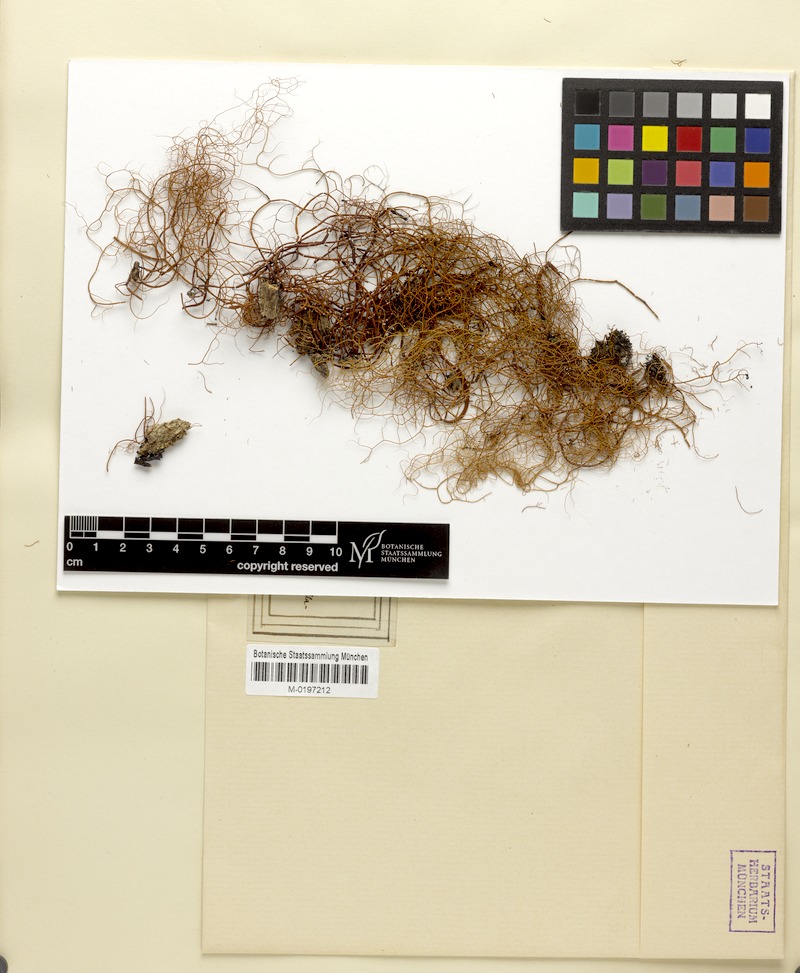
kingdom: Fungi
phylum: Ascomycota
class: Lecanoromycetes
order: Lecanorales
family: Parmeliaceae
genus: Usnea
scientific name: Usnea vrieseana
